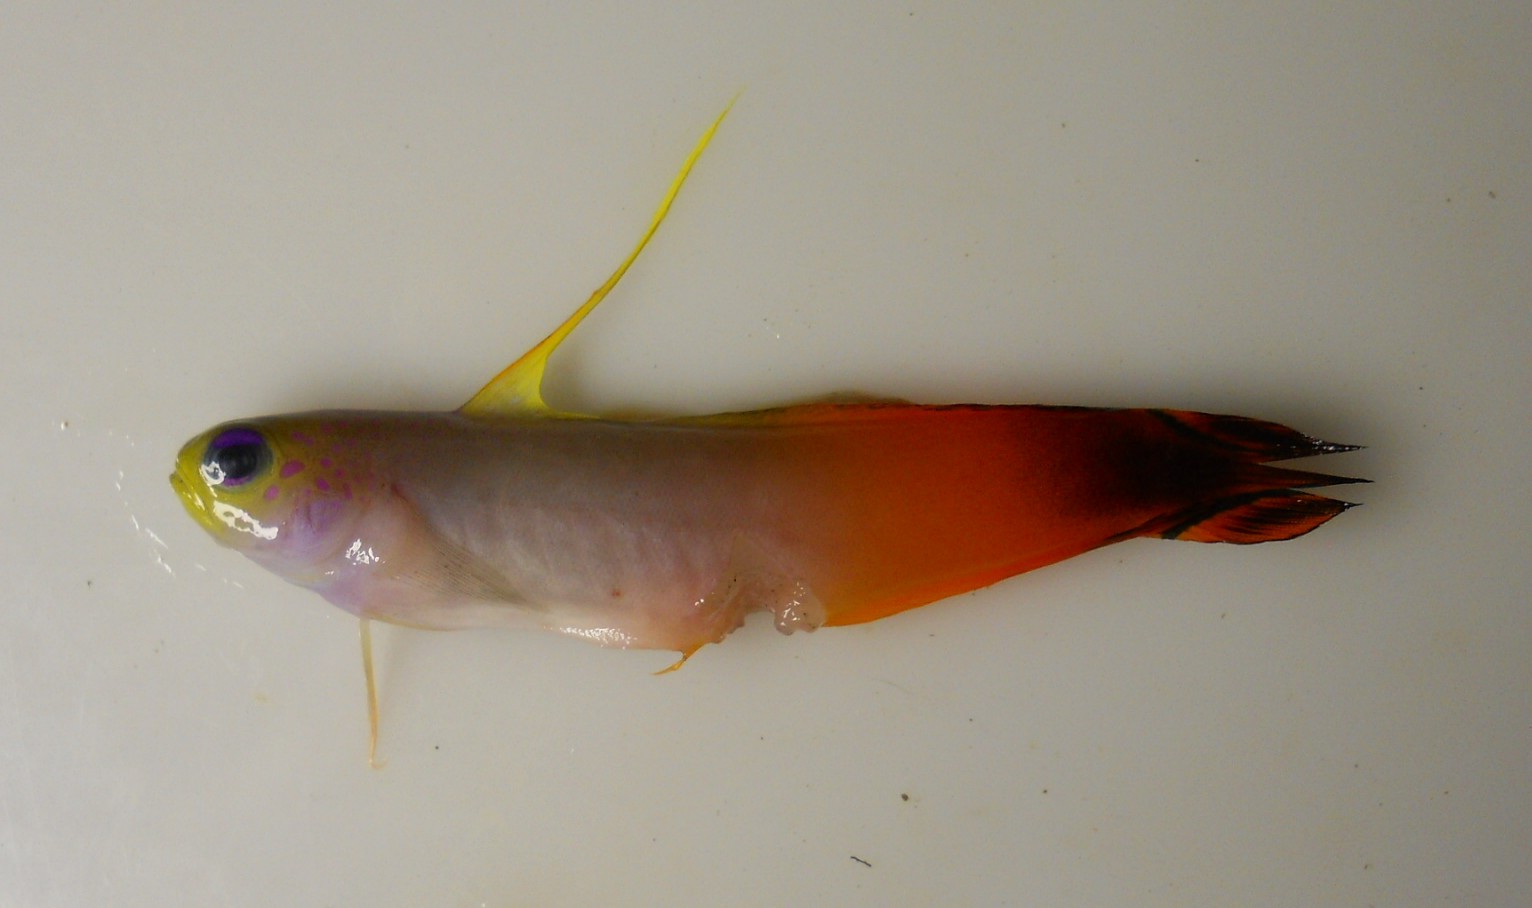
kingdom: Animalia
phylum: Chordata
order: Perciformes
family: Microdesmidae
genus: Nemateleotris
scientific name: Nemateleotris magnifica
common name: Fire goby
